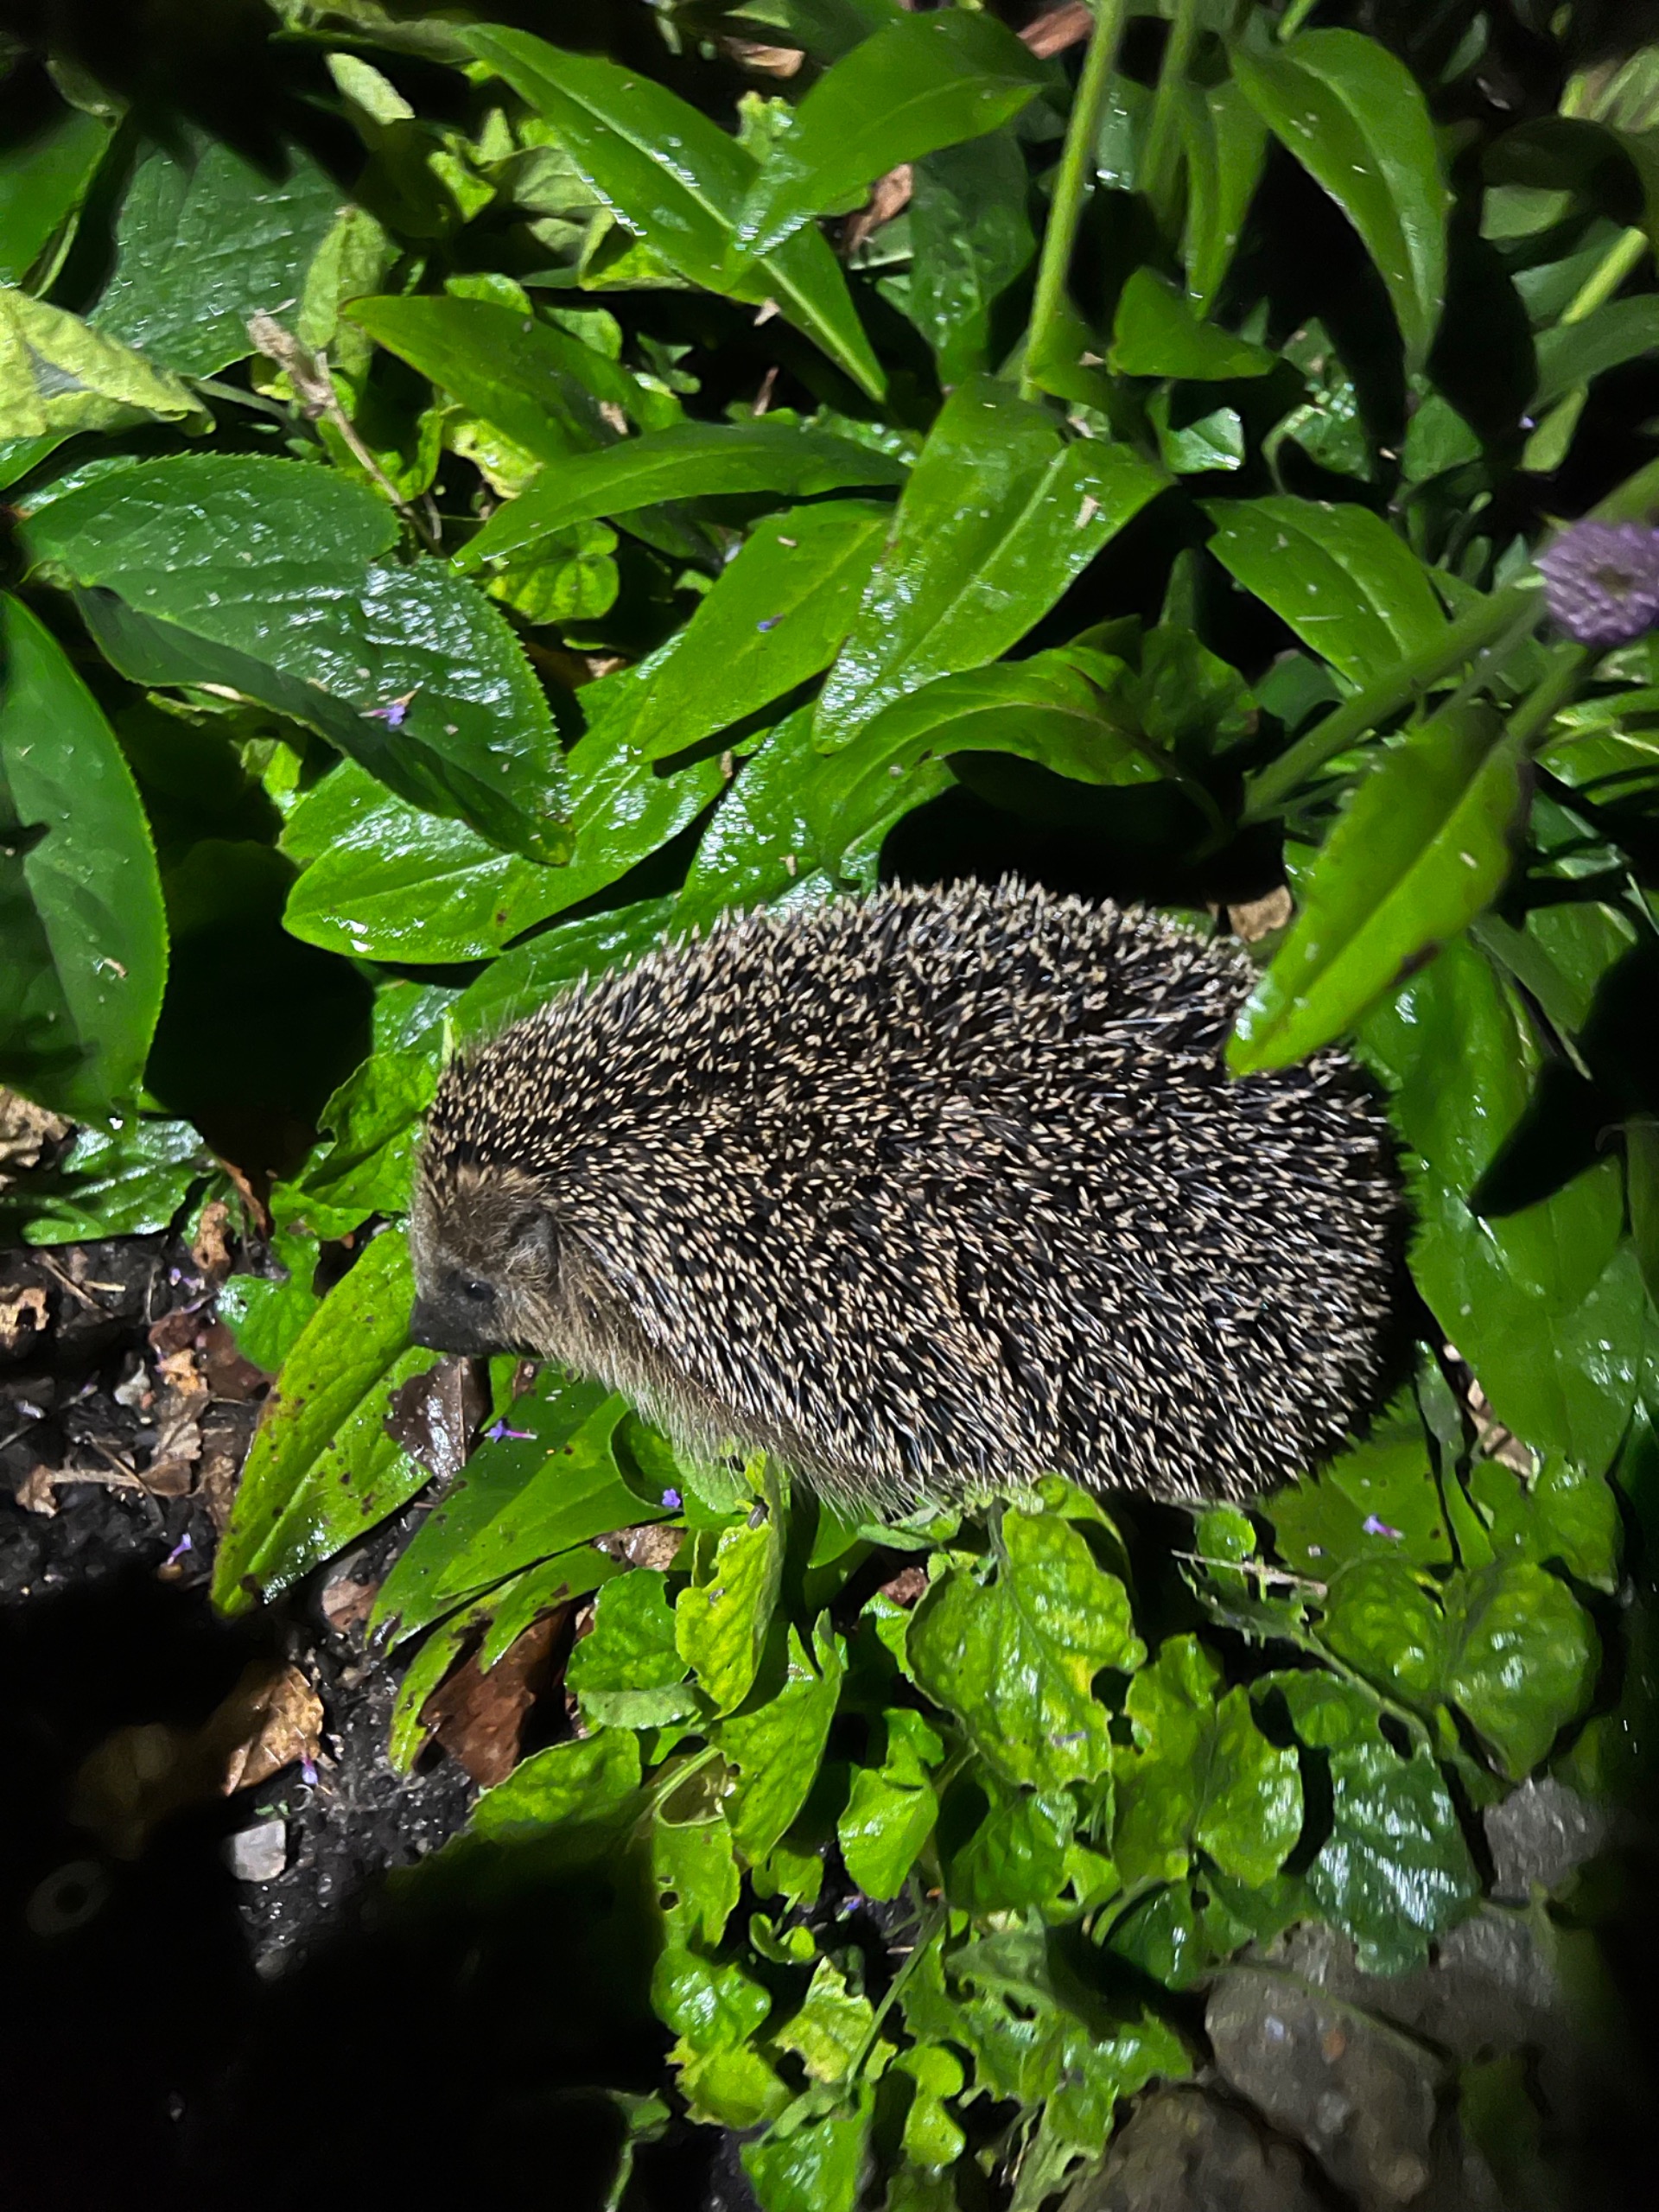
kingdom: Animalia
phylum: Chordata
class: Mammalia
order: Erinaceomorpha
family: Erinaceidae
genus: Erinaceus
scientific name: Erinaceus europaeus
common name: Pindsvin
